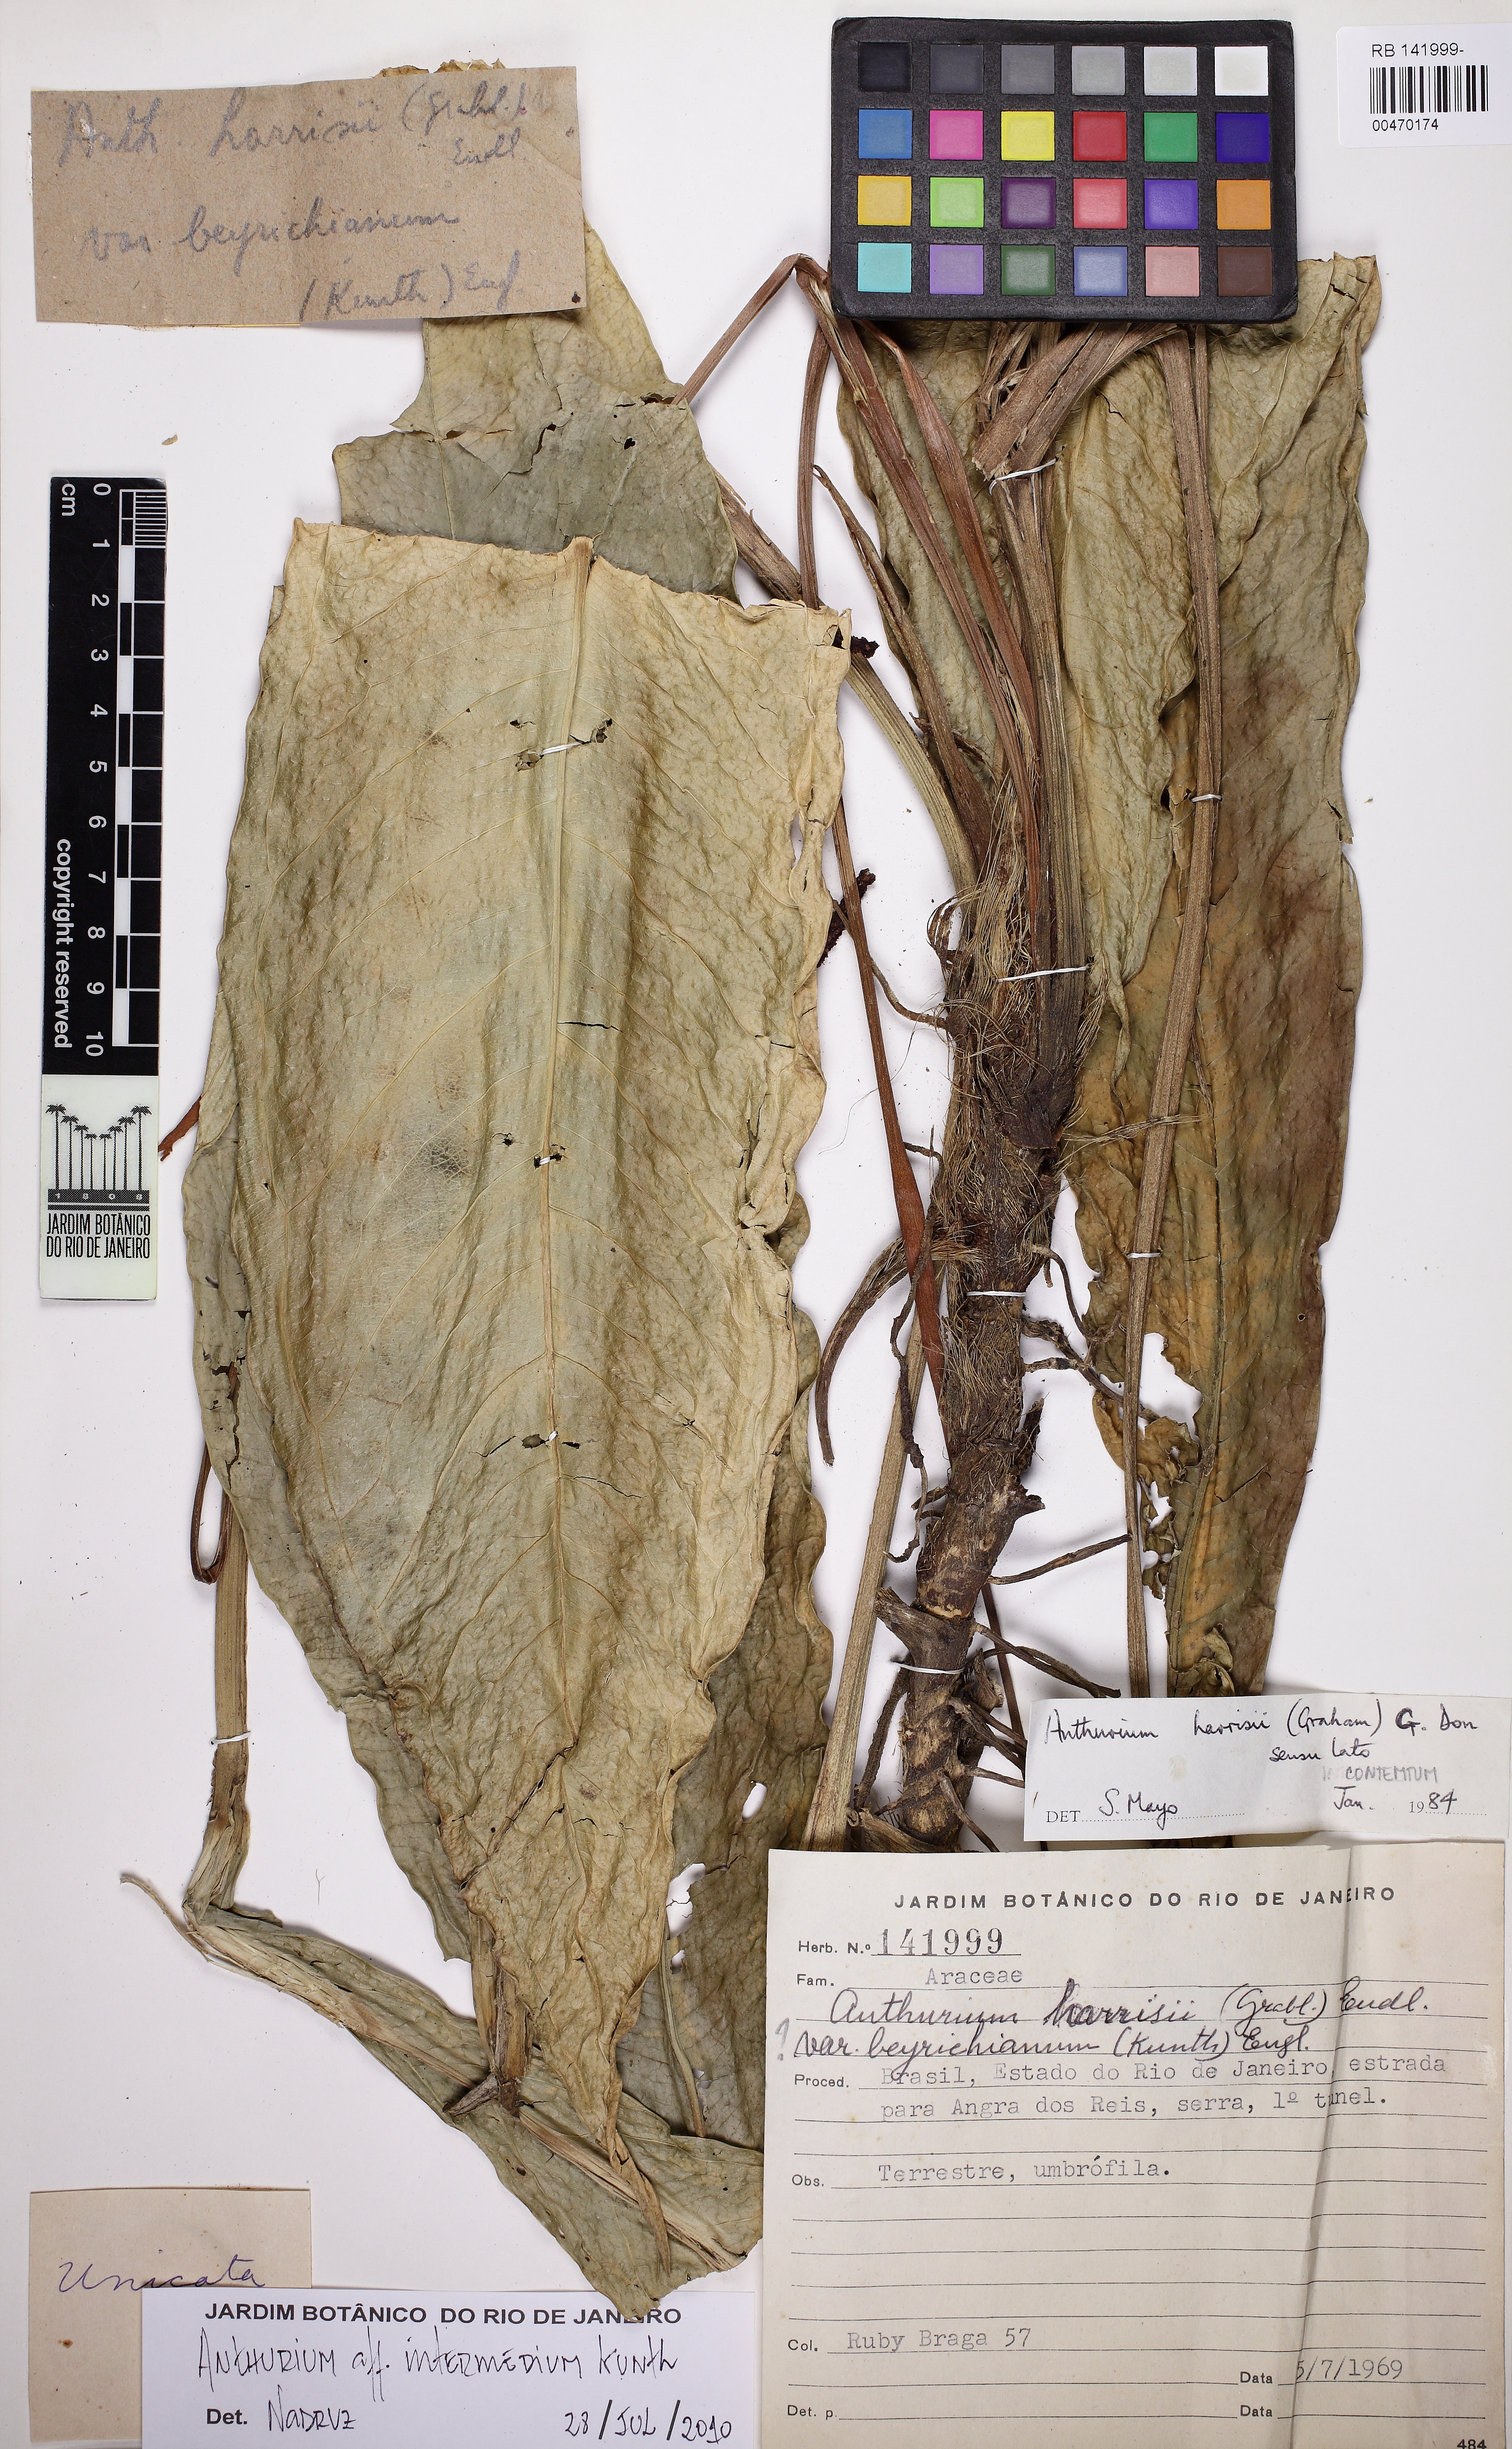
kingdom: Plantae
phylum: Tracheophyta
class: Liliopsida
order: Alismatales
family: Araceae
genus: Anthurium
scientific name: Anthurium intermedium
